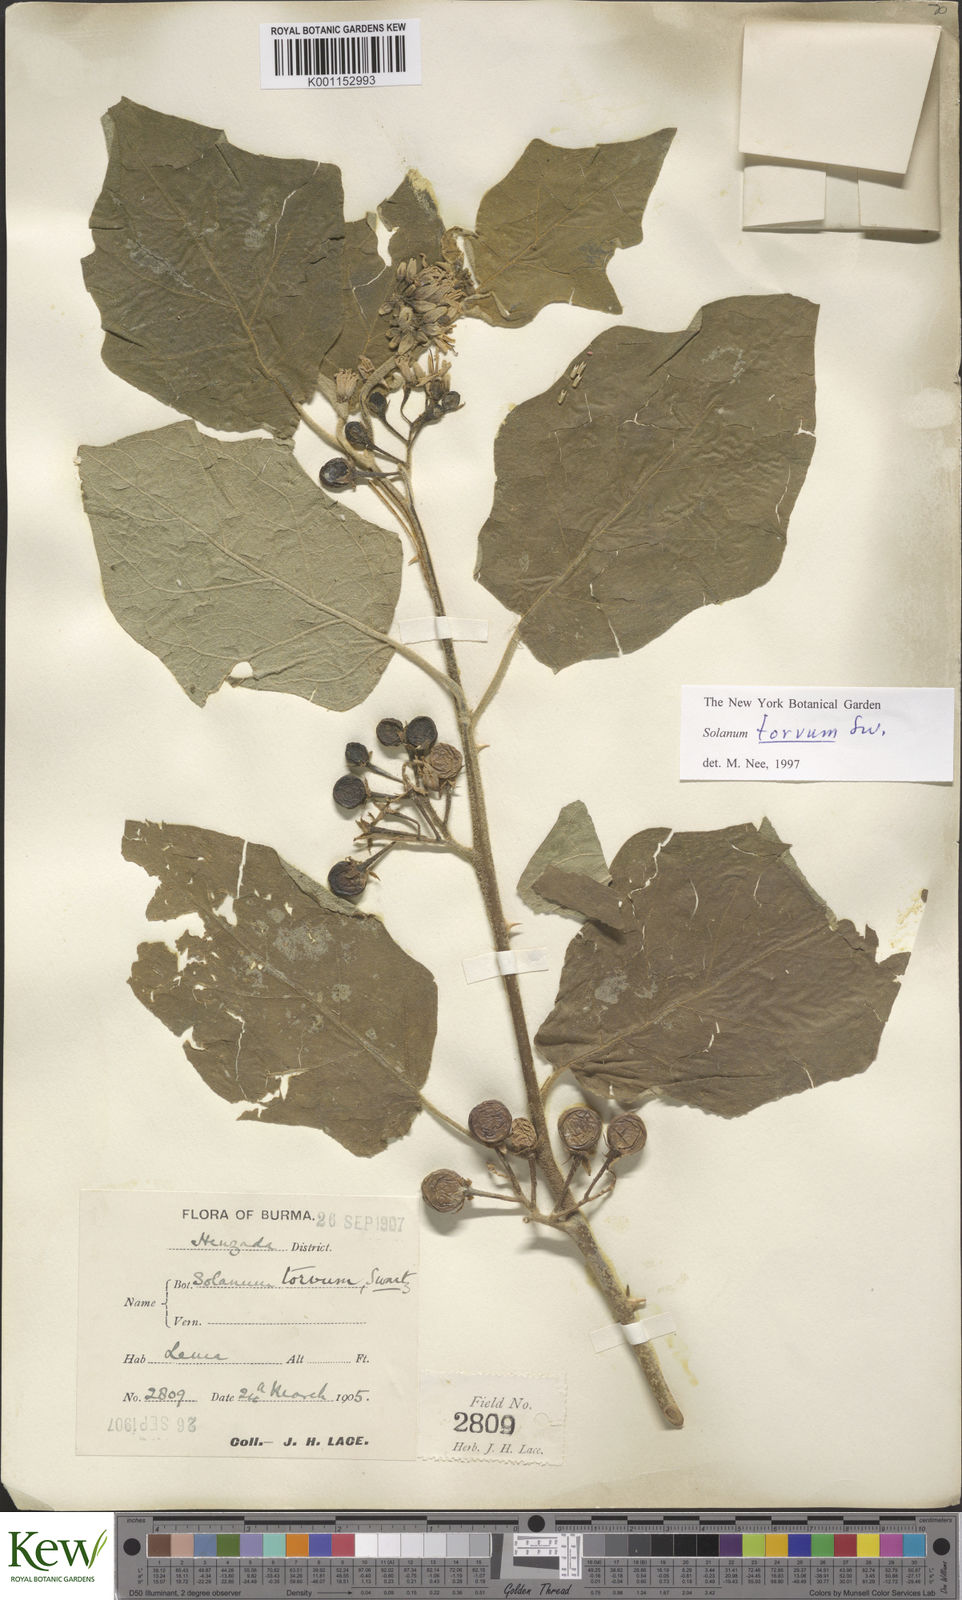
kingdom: Plantae
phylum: Tracheophyta
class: Magnoliopsida
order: Solanales
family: Solanaceae
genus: Solanum
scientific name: Solanum torvum
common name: Turkey berry
